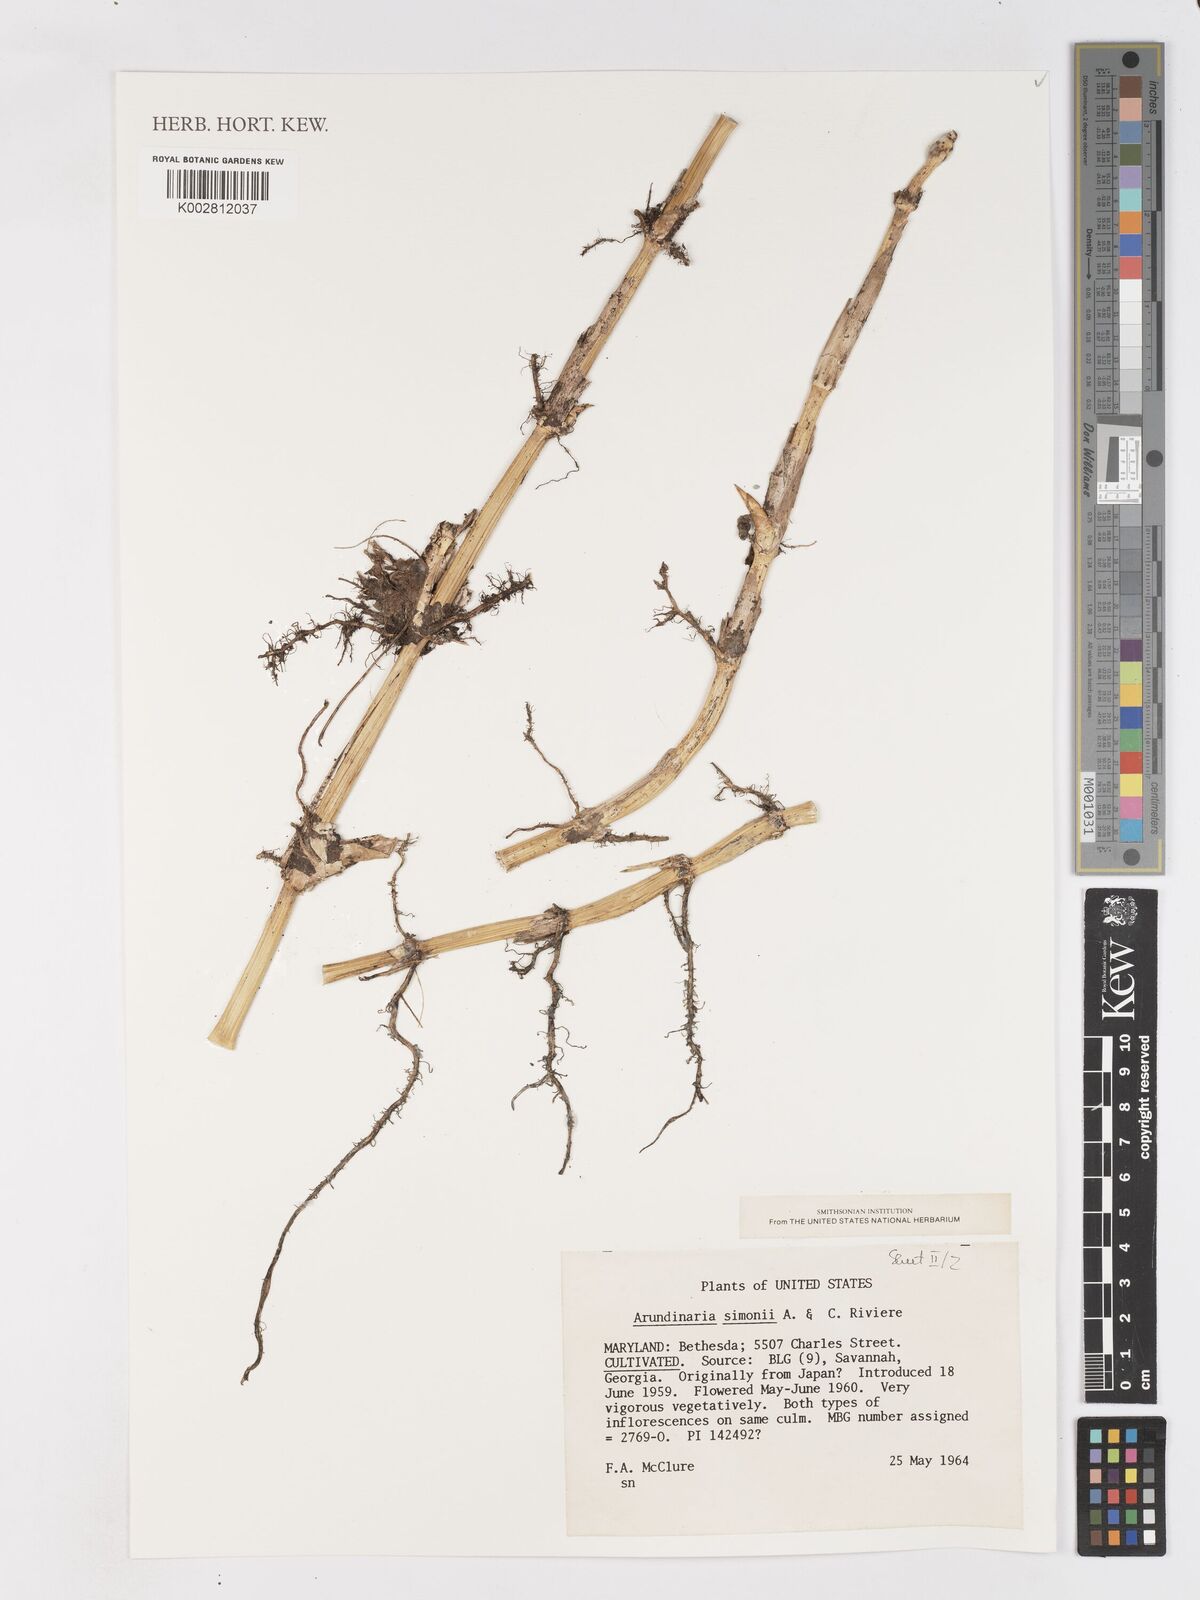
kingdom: Plantae
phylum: Tracheophyta
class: Liliopsida
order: Poales
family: Poaceae
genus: Pleioblastus
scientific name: Pleioblastus simonii
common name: Simon bamboo
